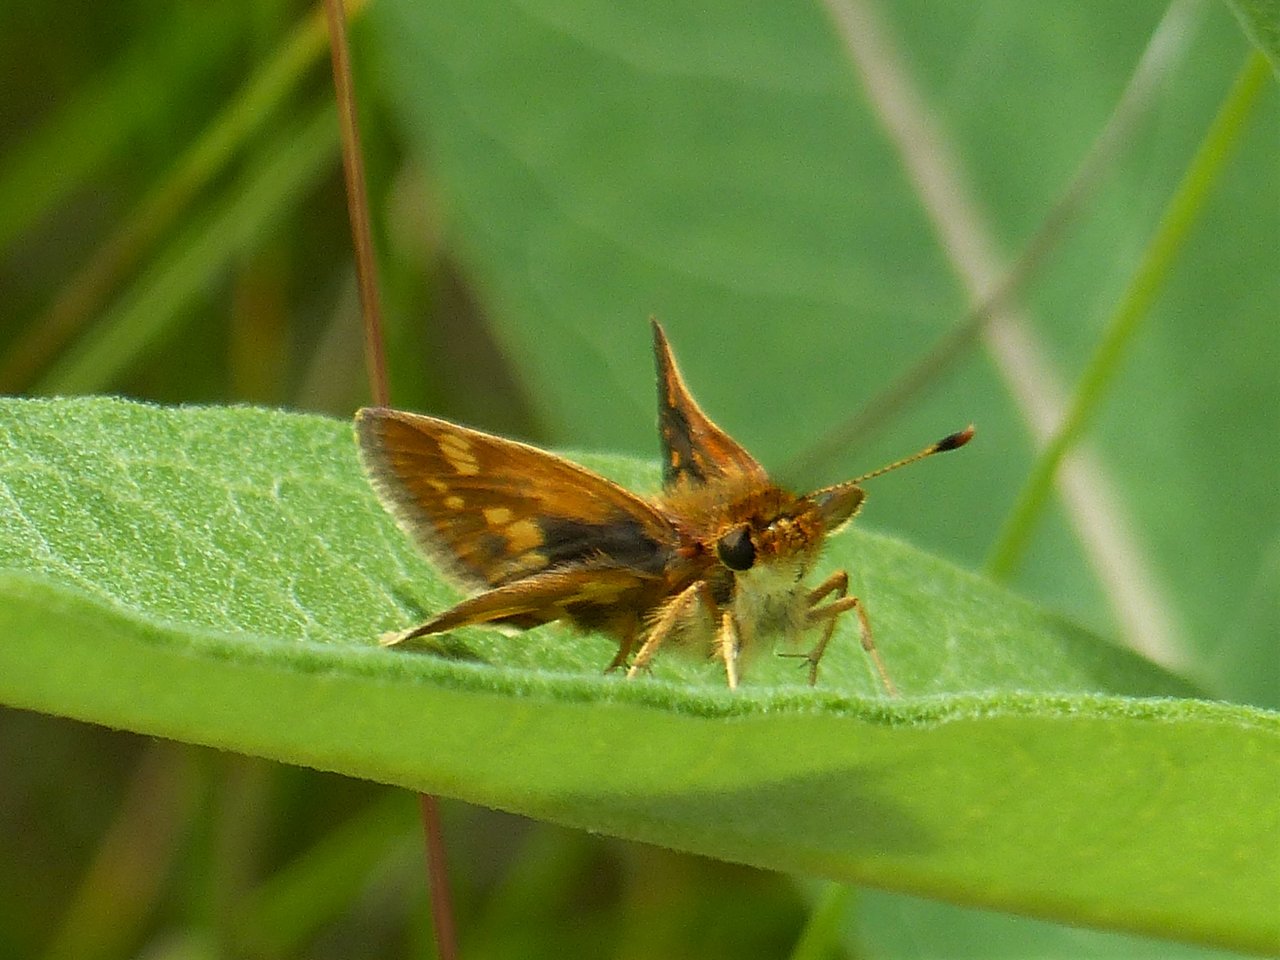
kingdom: Animalia
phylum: Arthropoda
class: Insecta
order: Lepidoptera
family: Hesperiidae
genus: Polites
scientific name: Polites coras
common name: Peck's Skipper
